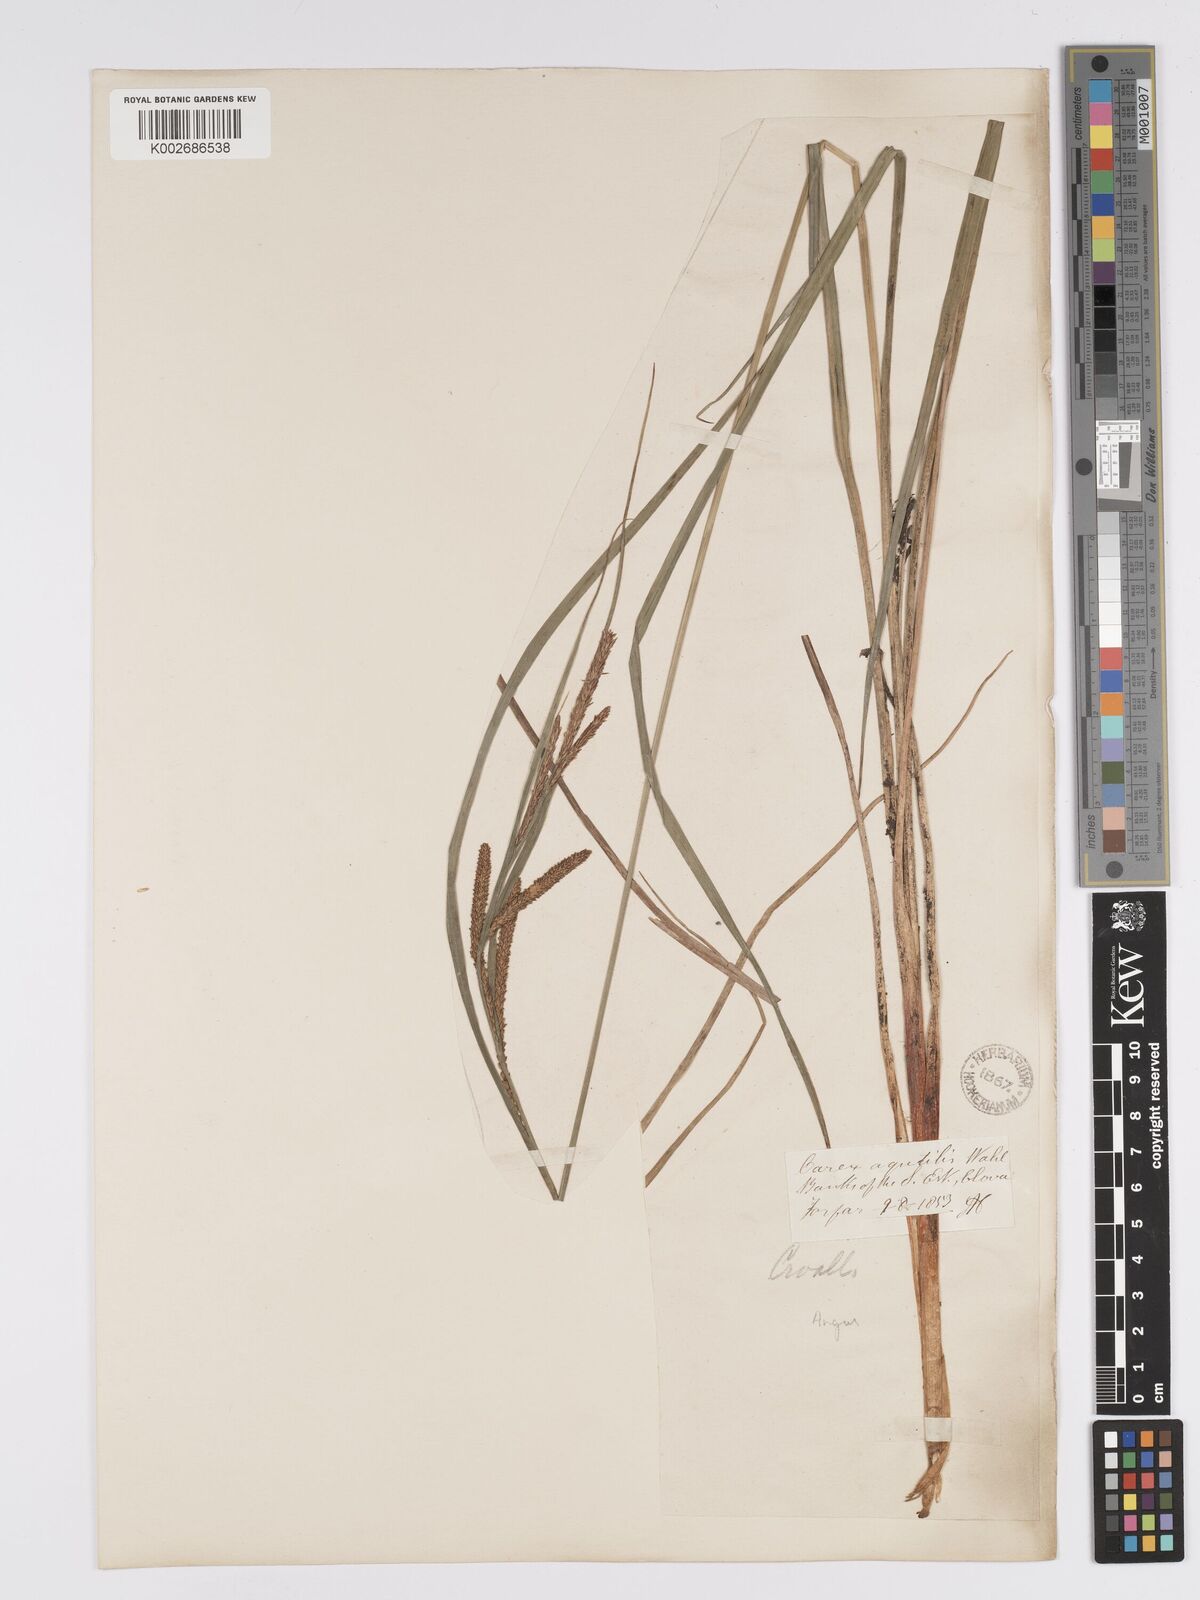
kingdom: Plantae
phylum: Tracheophyta
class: Liliopsida
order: Poales
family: Cyperaceae
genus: Carex
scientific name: Carex aquatilis
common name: Water sedge
